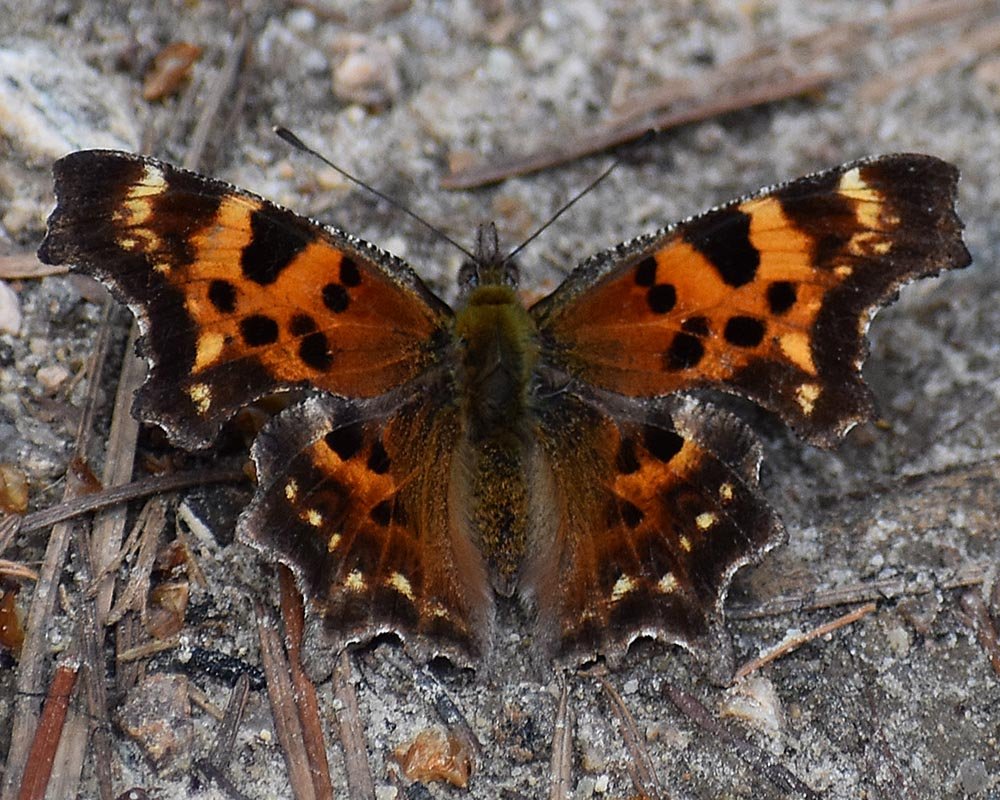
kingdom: Animalia
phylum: Arthropoda
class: Insecta
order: Lepidoptera
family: Nymphalidae
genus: Polygonia
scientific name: Polygonia faunus
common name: Green Comma
